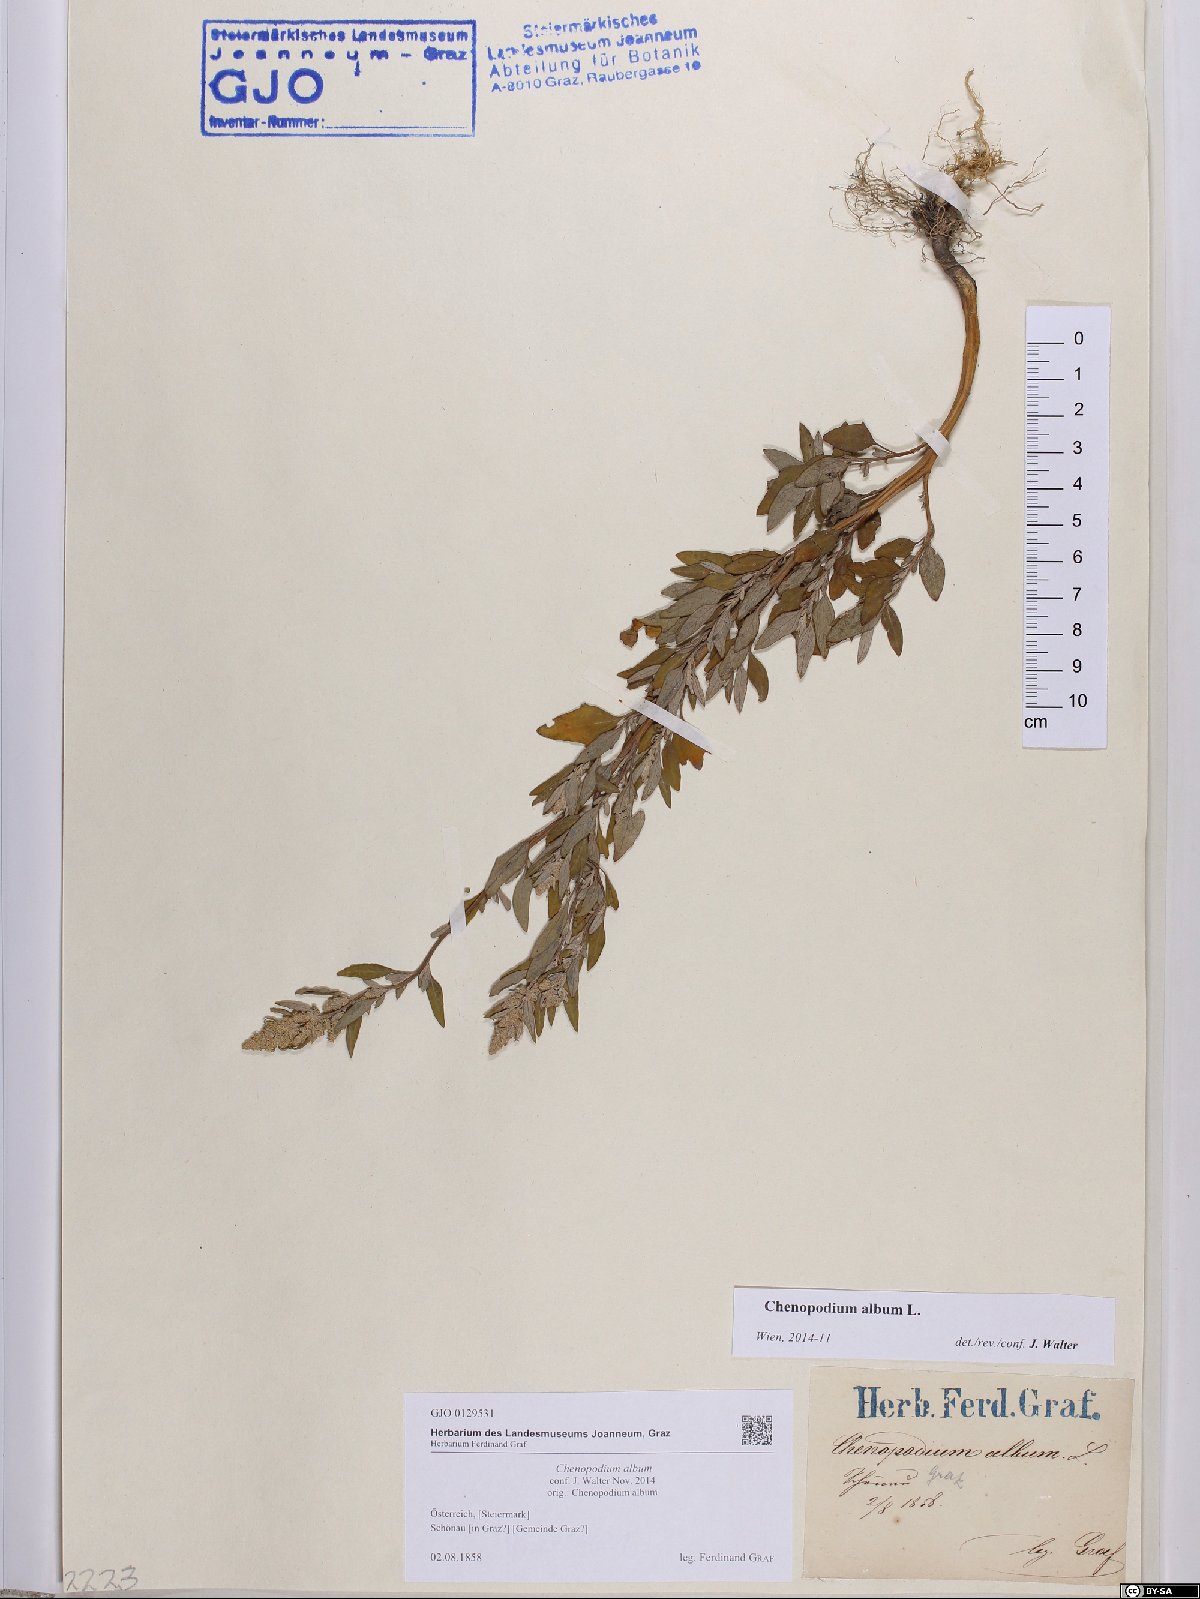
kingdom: Plantae
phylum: Tracheophyta
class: Magnoliopsida
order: Caryophyllales
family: Amaranthaceae
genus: Chenopodium
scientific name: Chenopodium album
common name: Fat-hen
